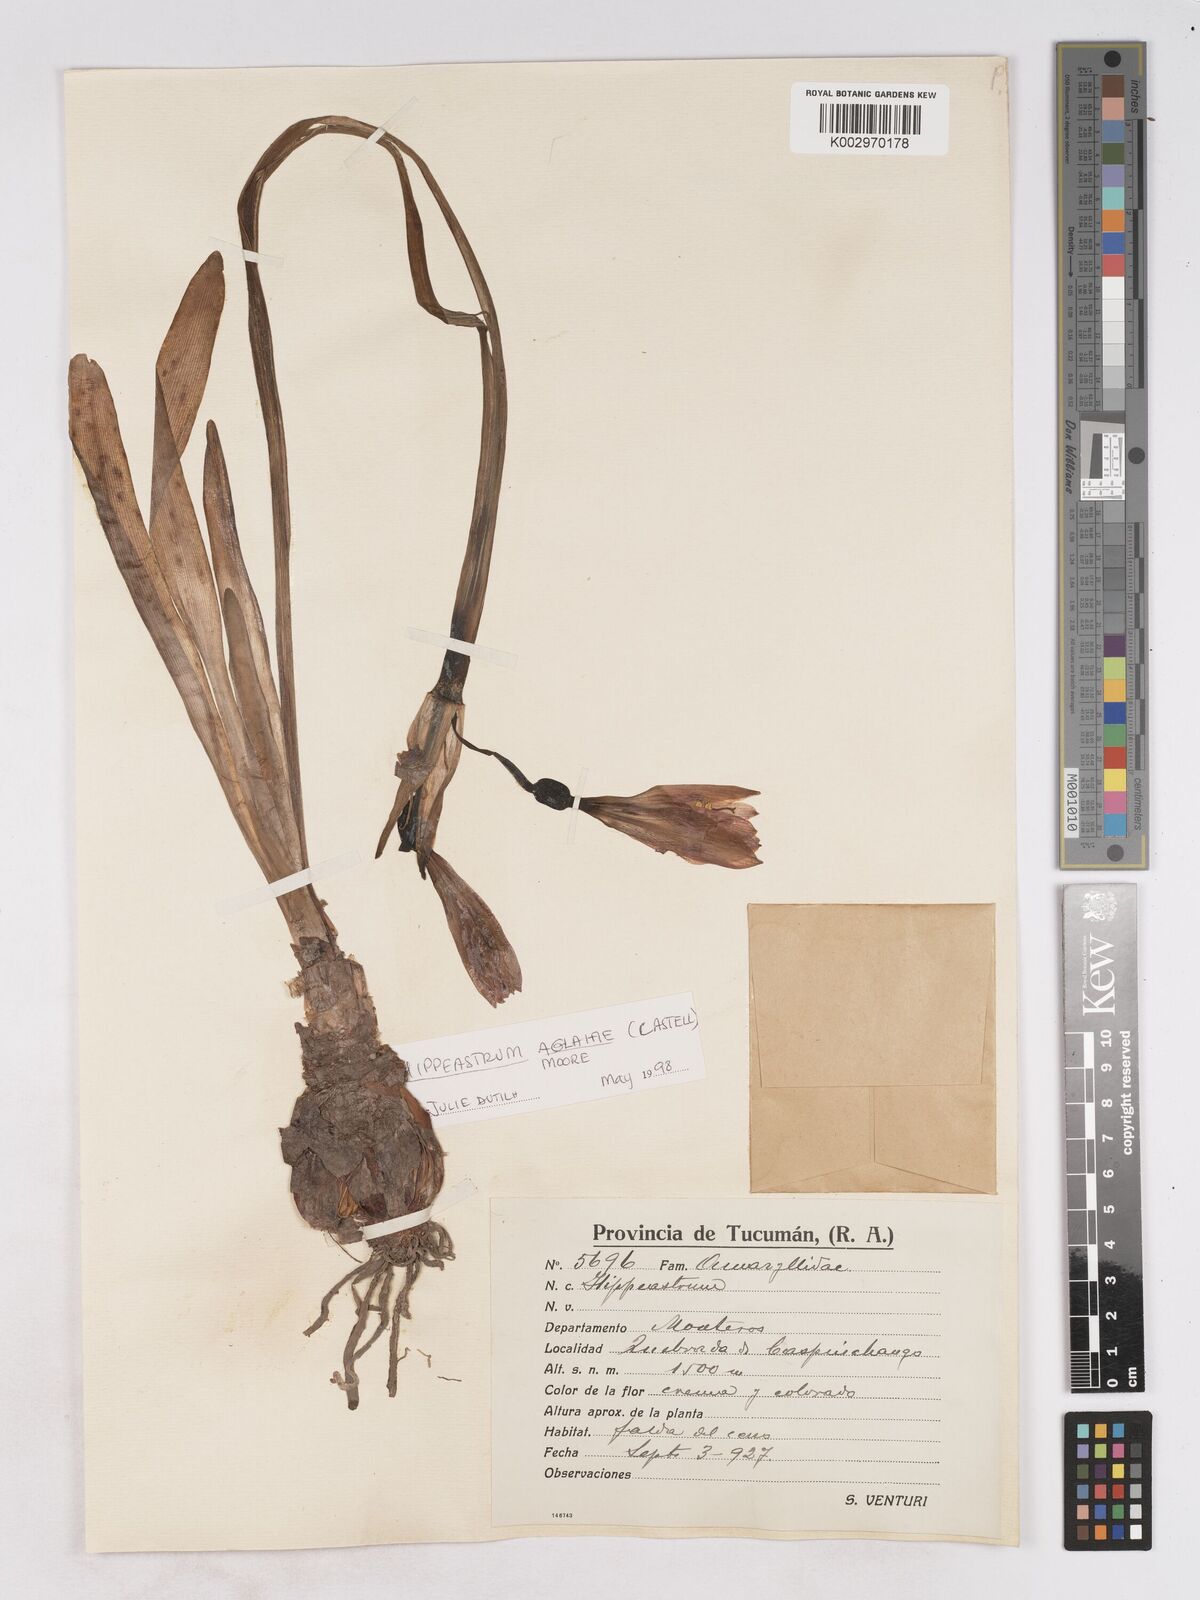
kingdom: Plantae
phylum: Tracheophyta
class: Liliopsida
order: Asparagales
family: Amaryllidaceae
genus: Hippeastrum
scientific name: Hippeastrum
